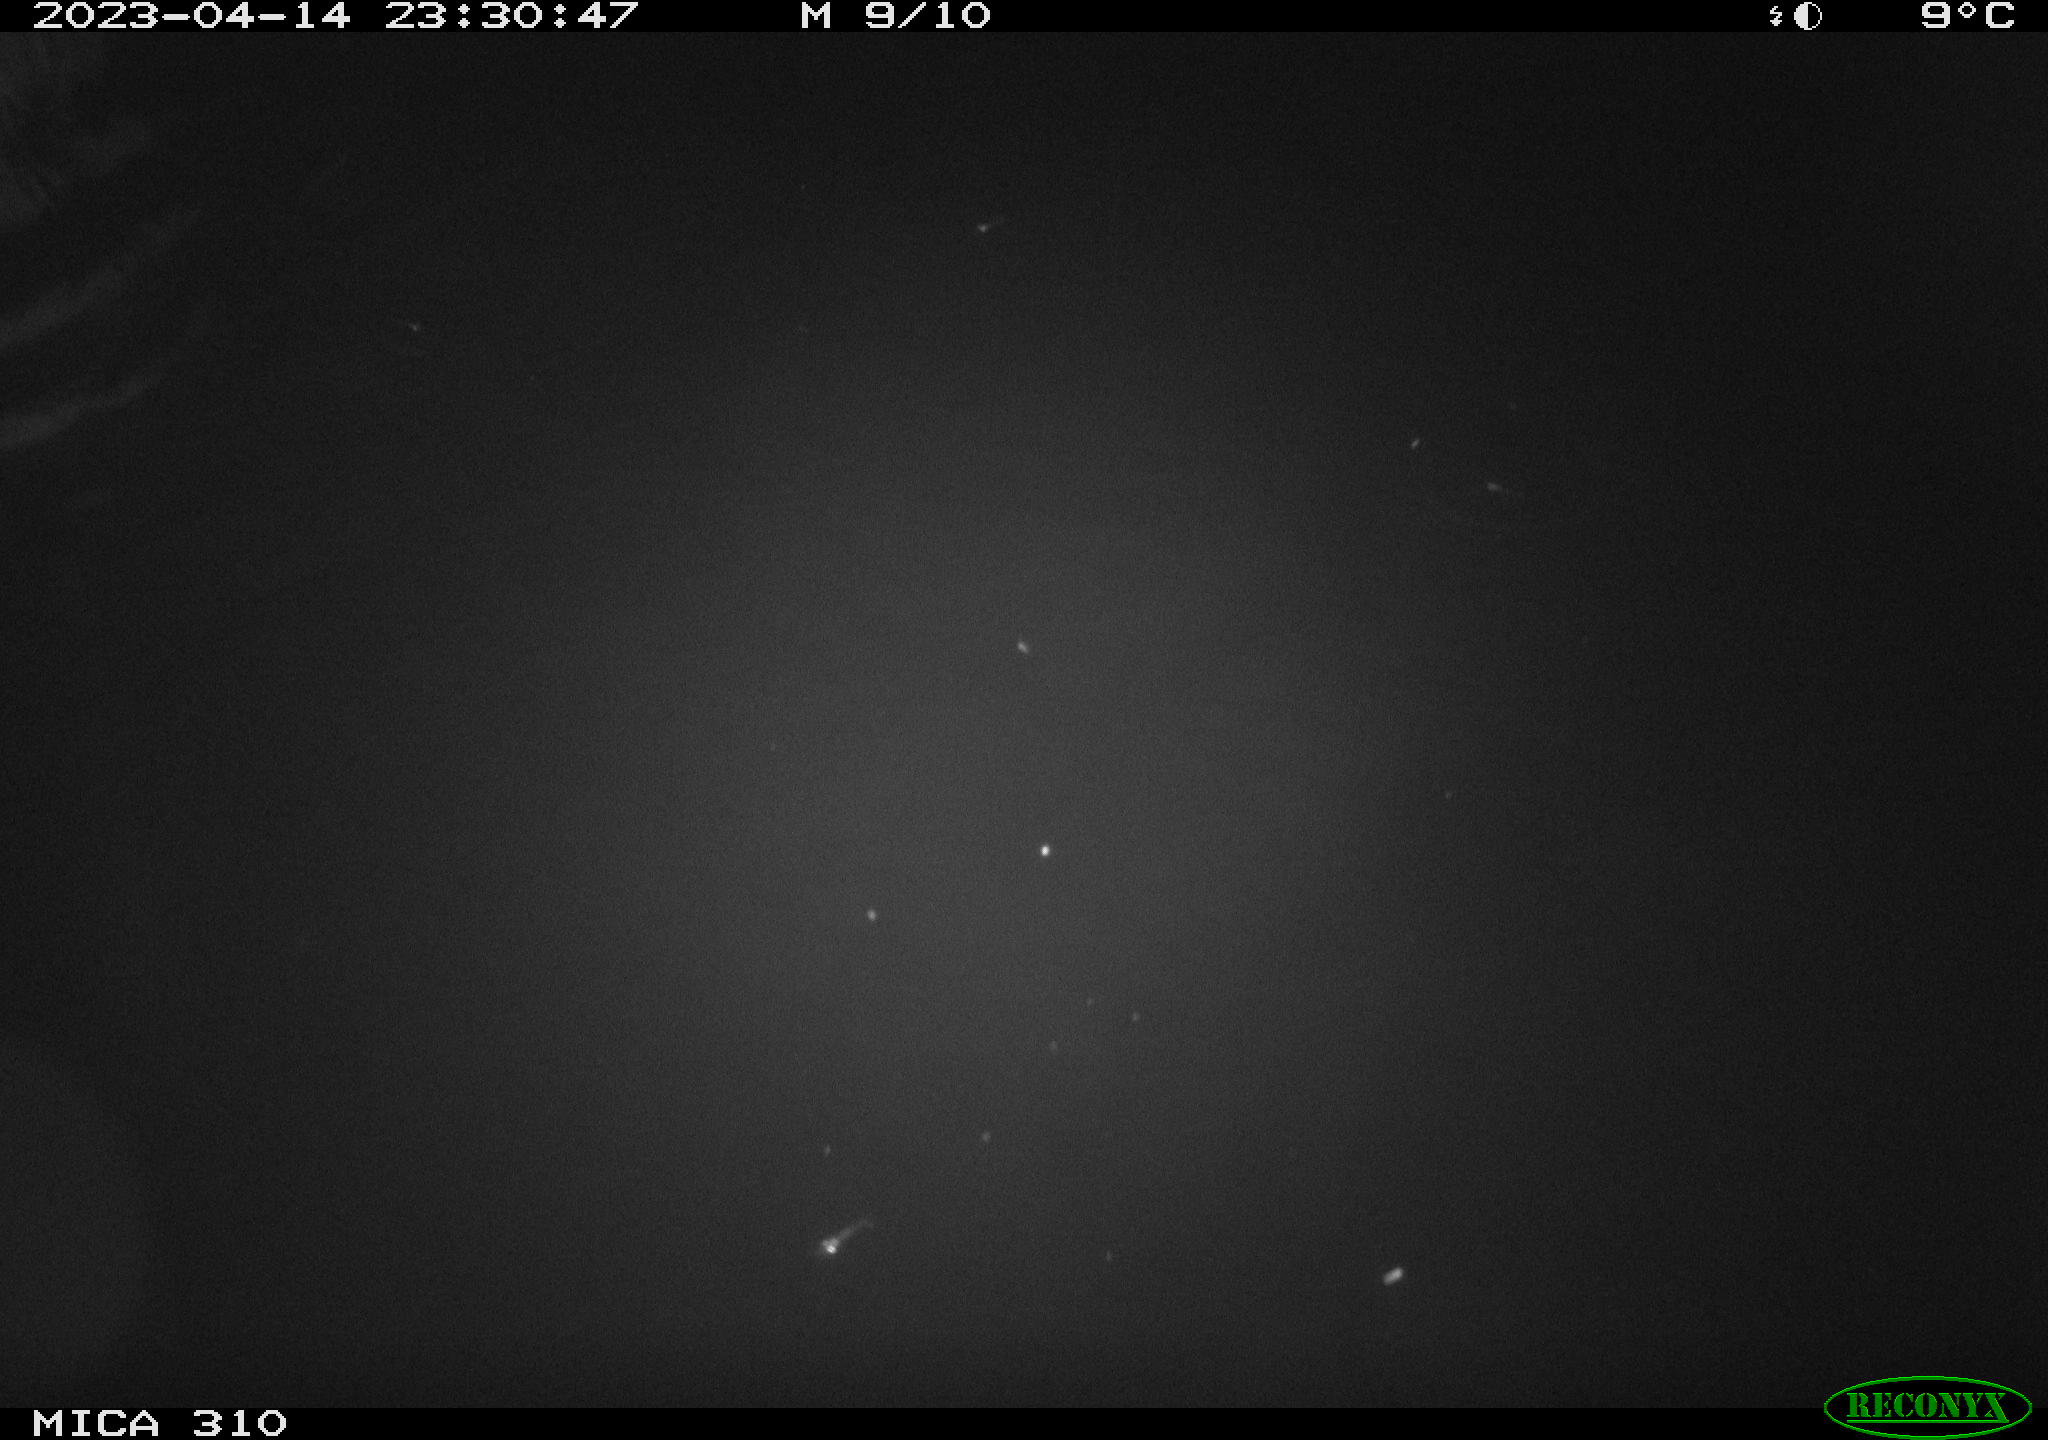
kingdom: Animalia
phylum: Chordata
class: Mammalia
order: Rodentia
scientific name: Rodentia
